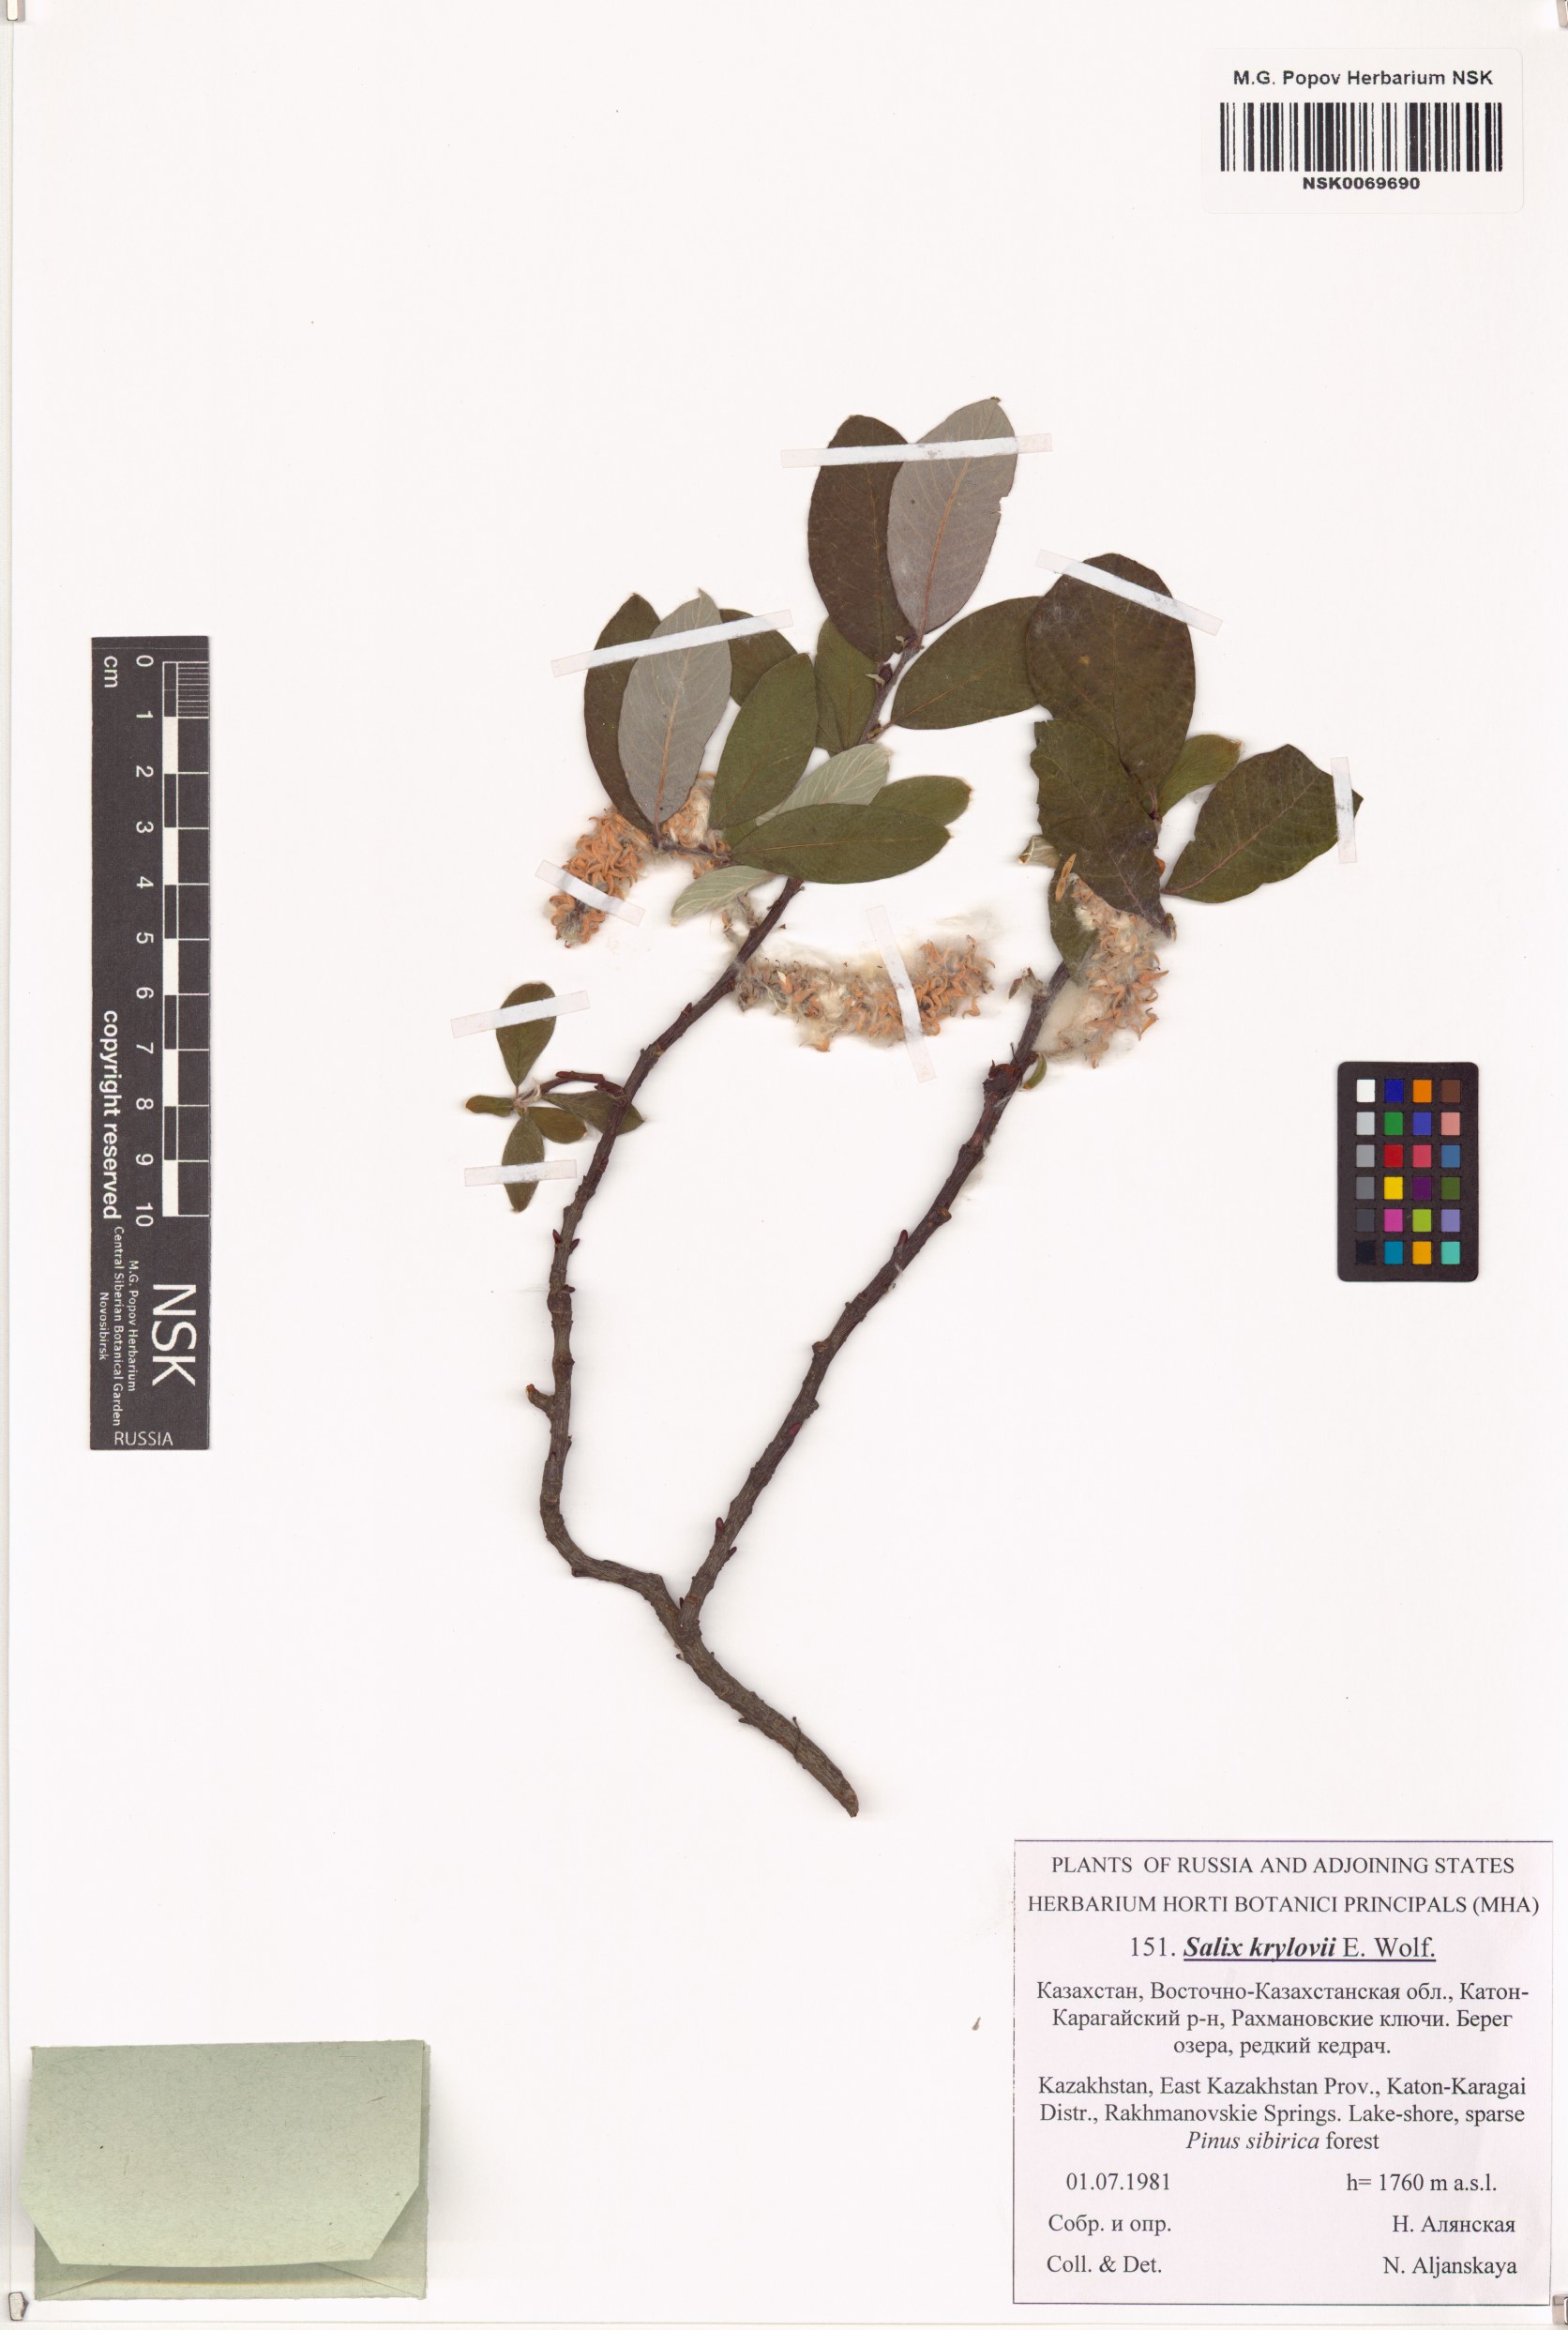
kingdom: Plantae
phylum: Tracheophyta
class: Magnoliopsida
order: Malpighiales
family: Salicaceae
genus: Salix
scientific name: Salix krylovii
